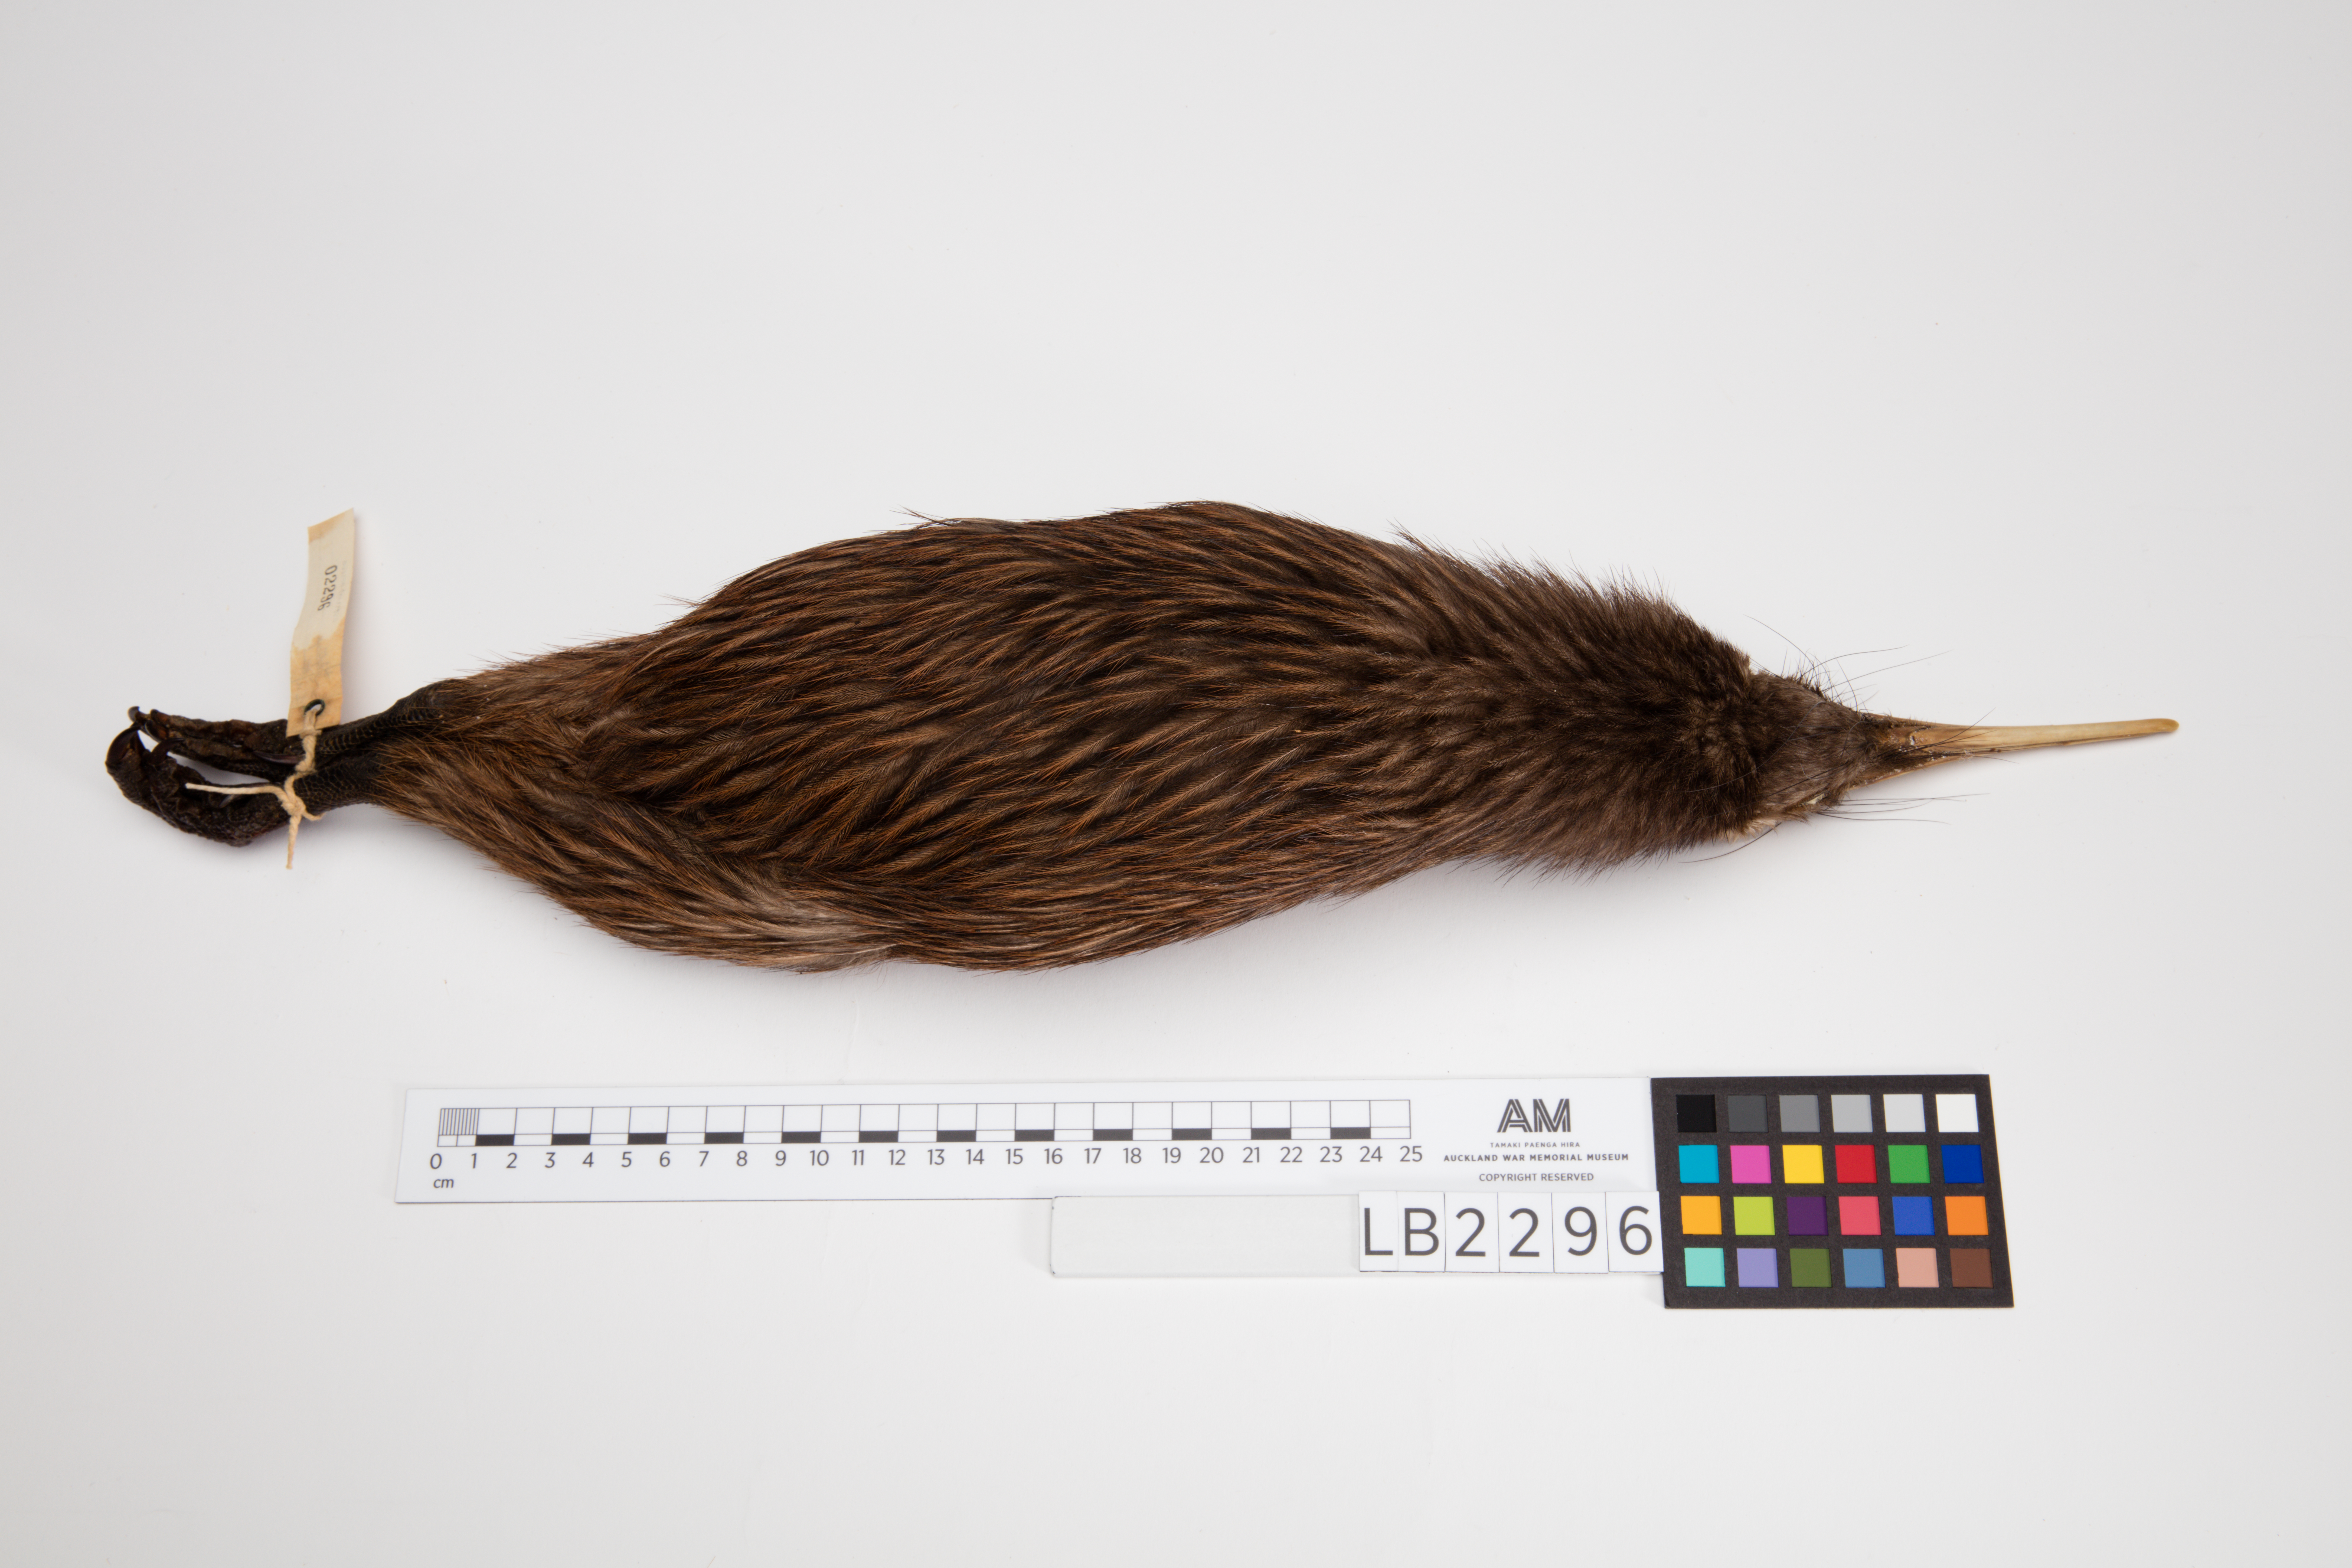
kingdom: Animalia
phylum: Chordata
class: Aves
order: Apterygiformes
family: Apterygidae
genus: Apteryx
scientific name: Apteryx mantelli
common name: North island brown kiwi
